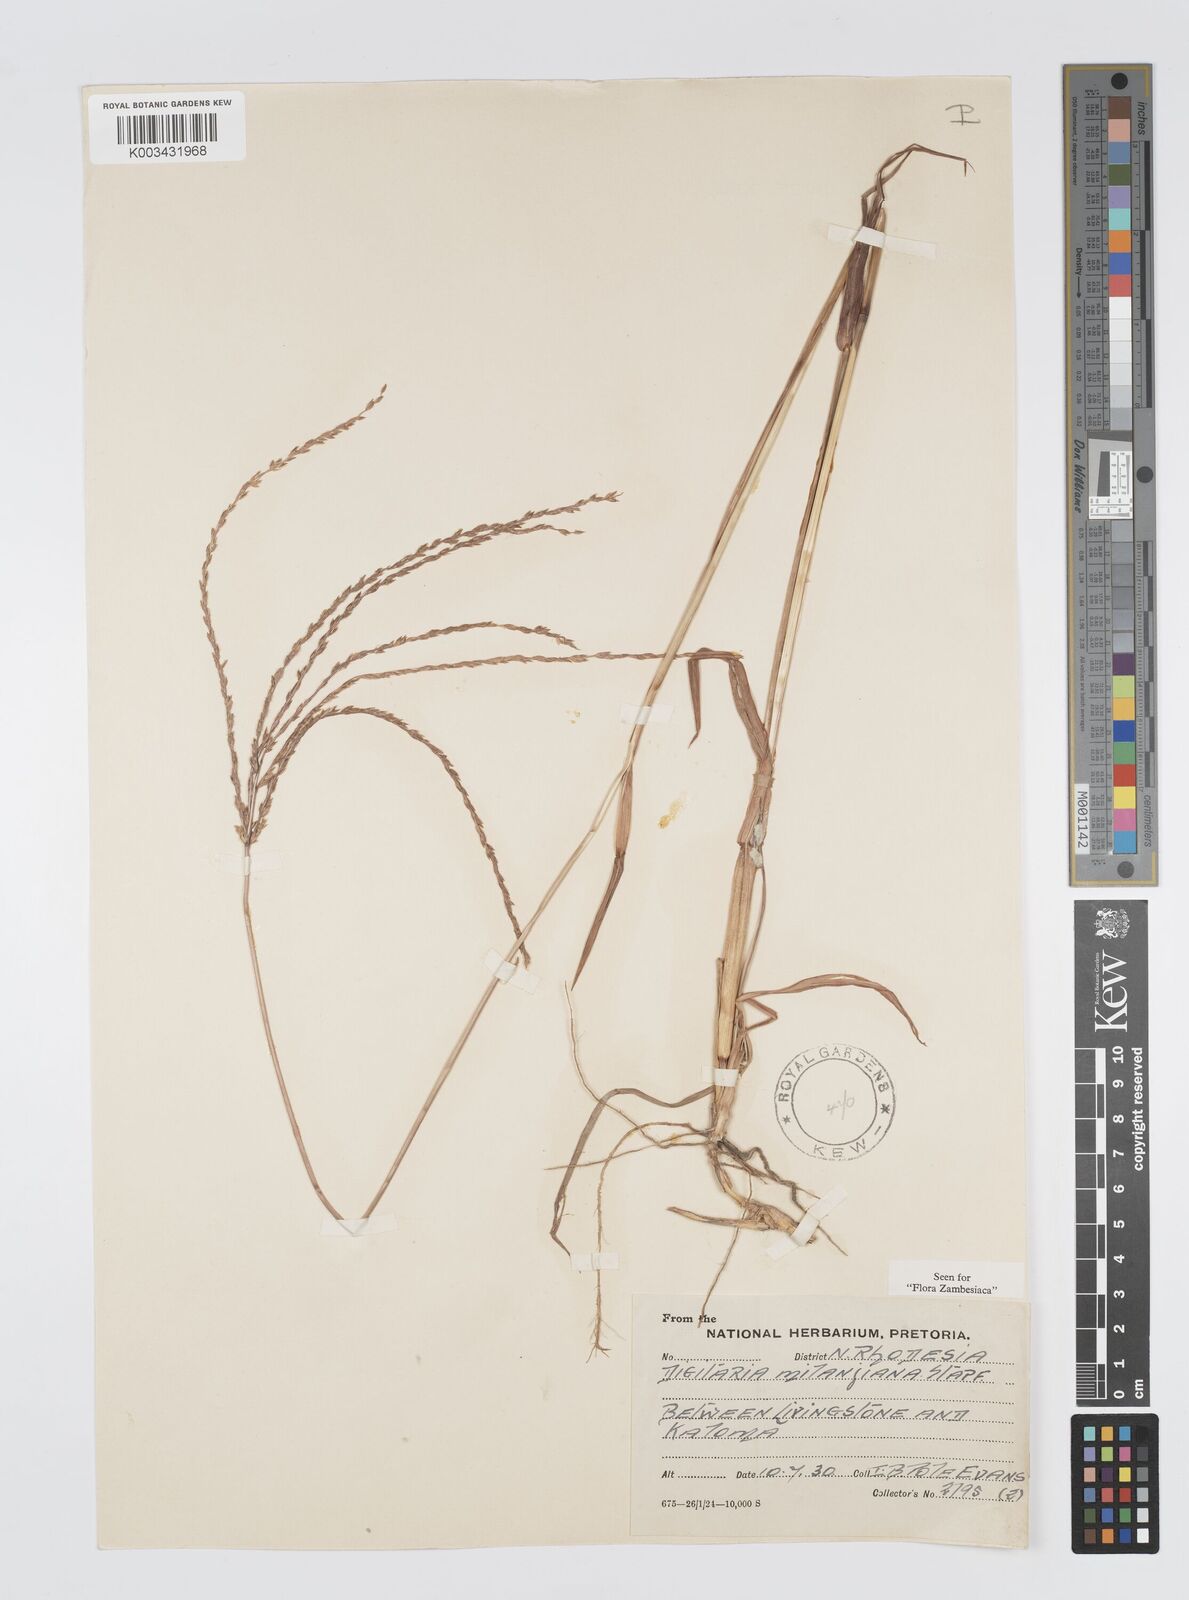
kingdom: Plantae
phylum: Tracheophyta
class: Liliopsida
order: Poales
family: Poaceae
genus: Digitaria
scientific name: Digitaria milanjiana
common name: Madagascar crabgrass
